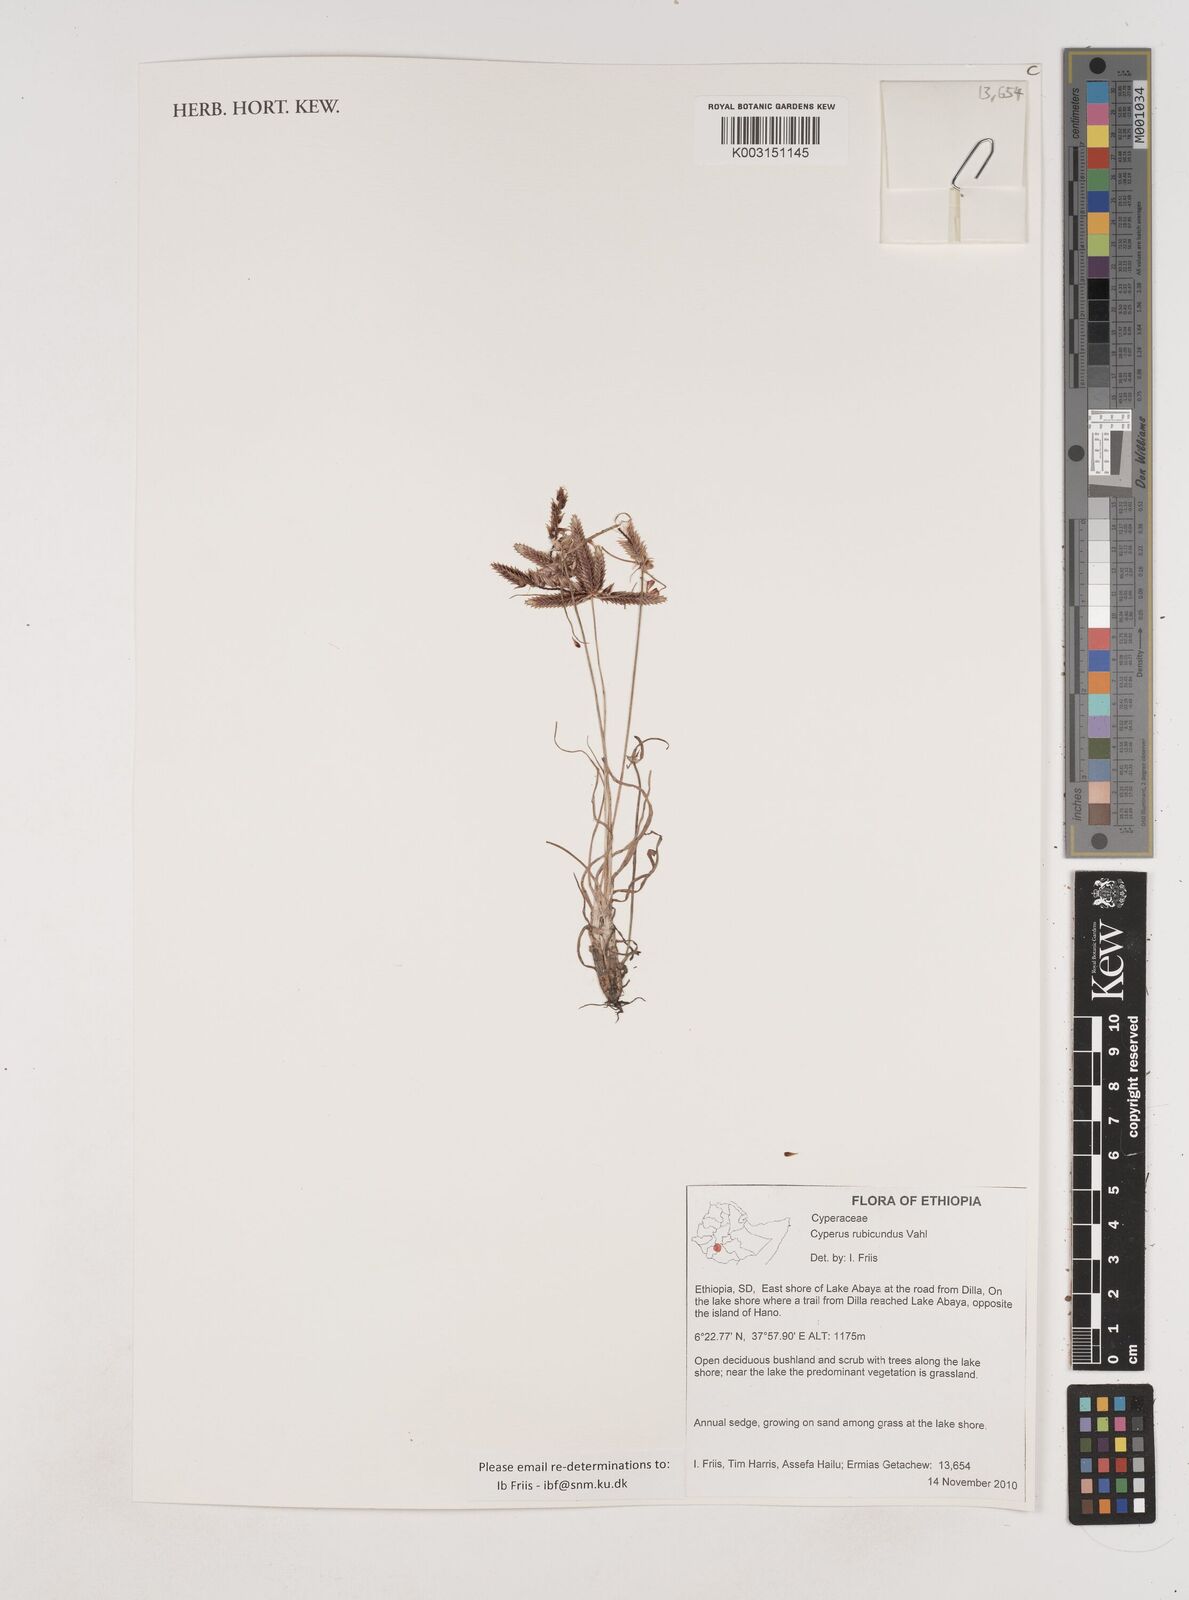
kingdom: Plantae
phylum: Tracheophyta
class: Liliopsida
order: Poales
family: Cyperaceae
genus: Cyperus
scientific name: Cyperus rubicundus
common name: Coco-grass
